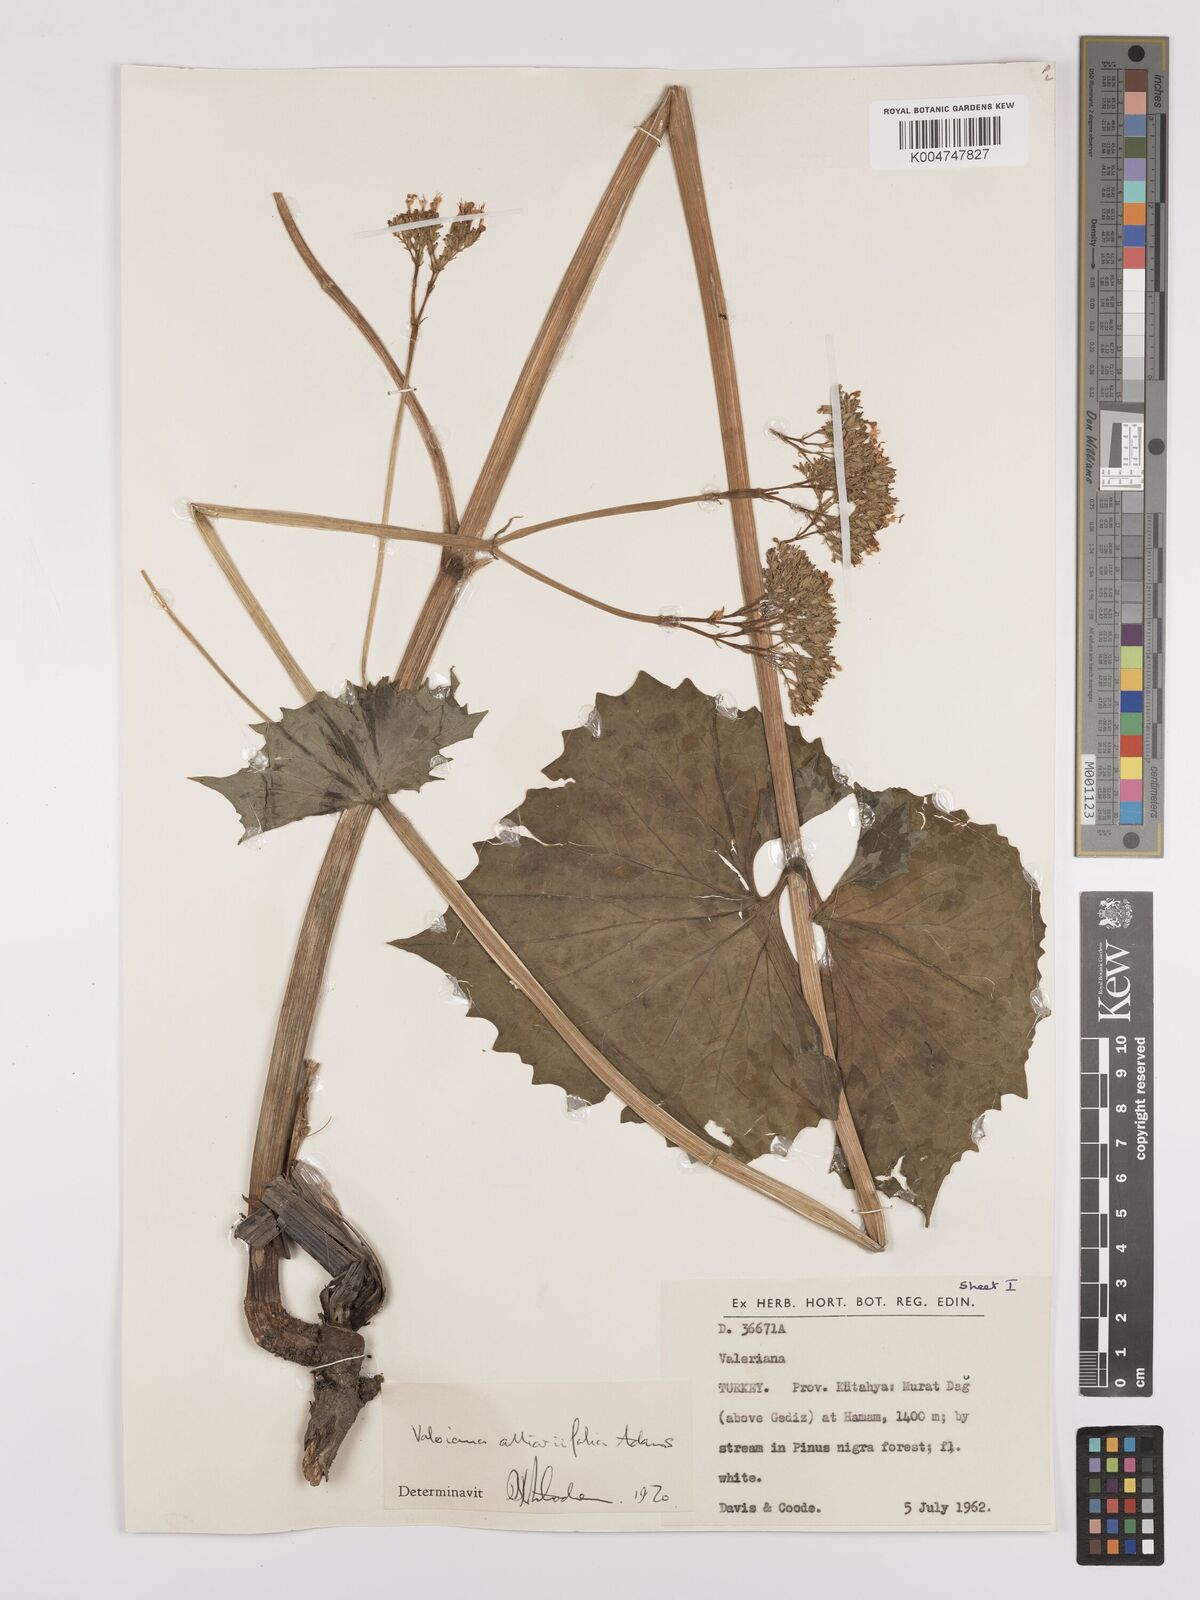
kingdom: Plantae
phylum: Tracheophyta
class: Magnoliopsida
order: Dipsacales
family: Caprifoliaceae
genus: Valeriana
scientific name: Valeriana
